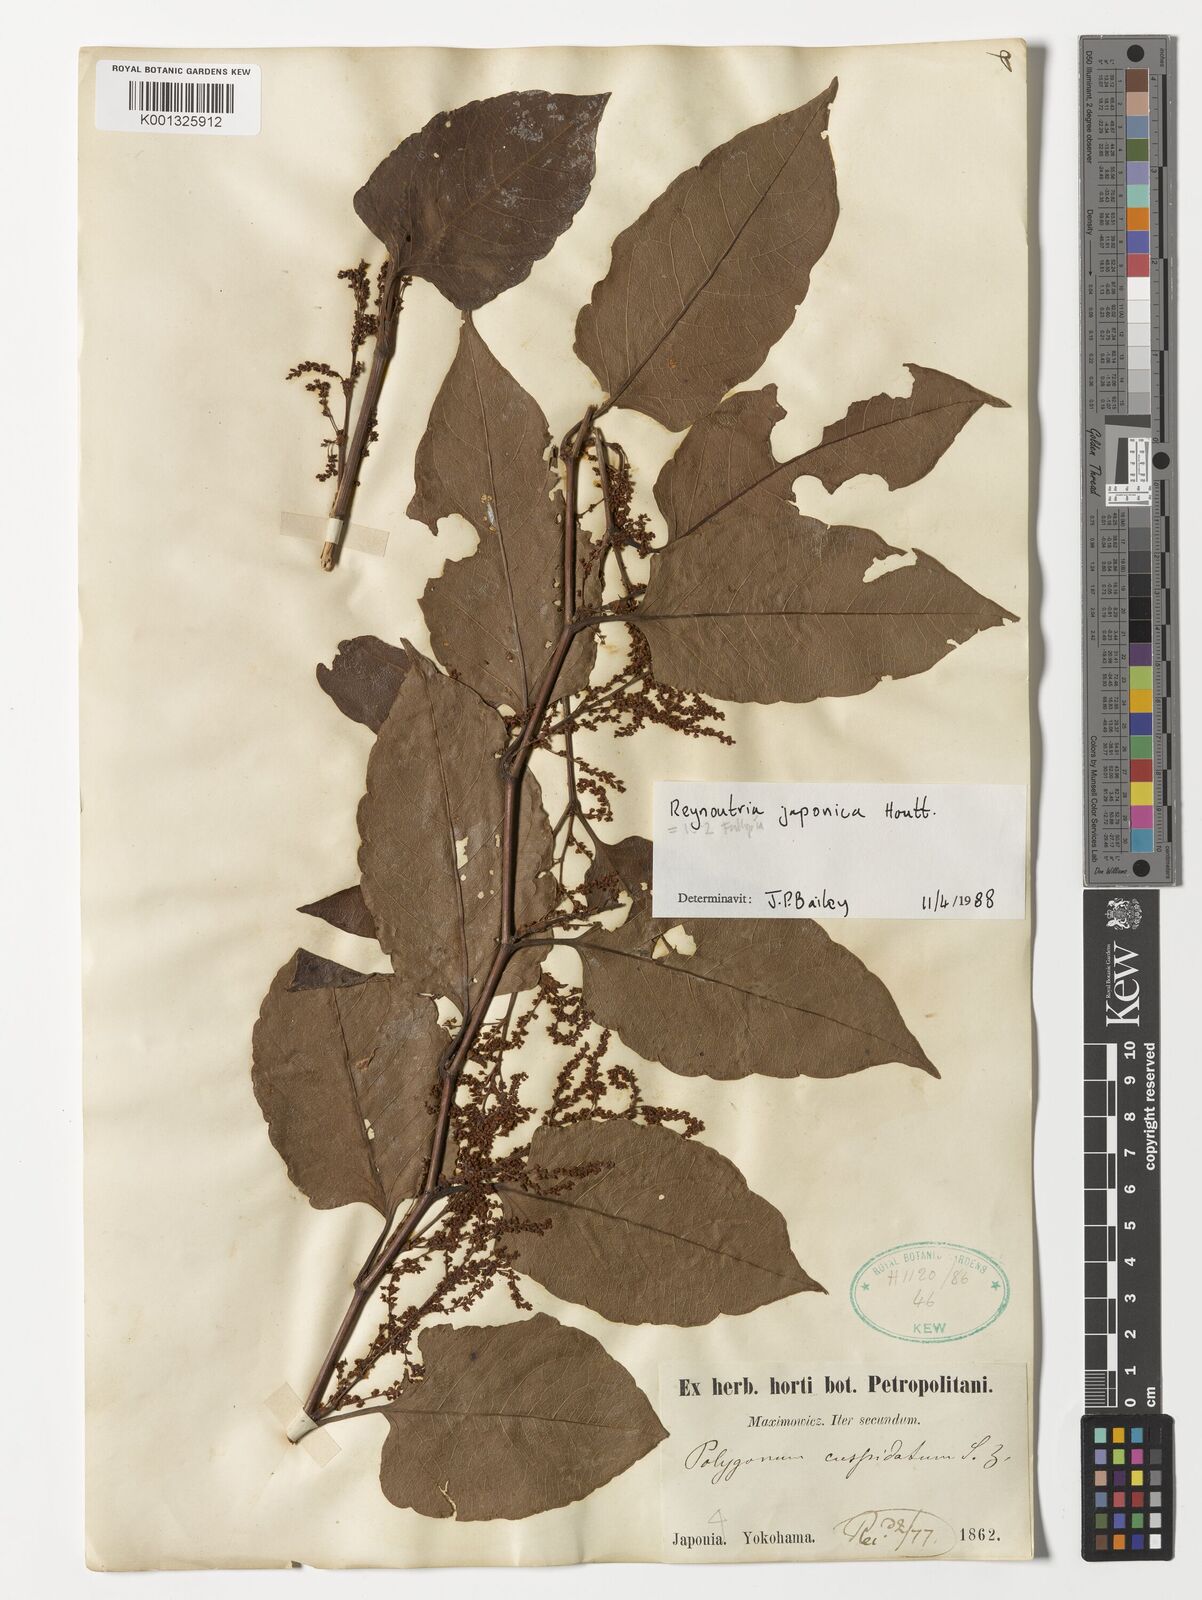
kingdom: Plantae
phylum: Tracheophyta
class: Magnoliopsida
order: Caryophyllales
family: Polygonaceae
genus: Reynoutria
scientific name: Reynoutria japonica
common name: Japanese knotweed
